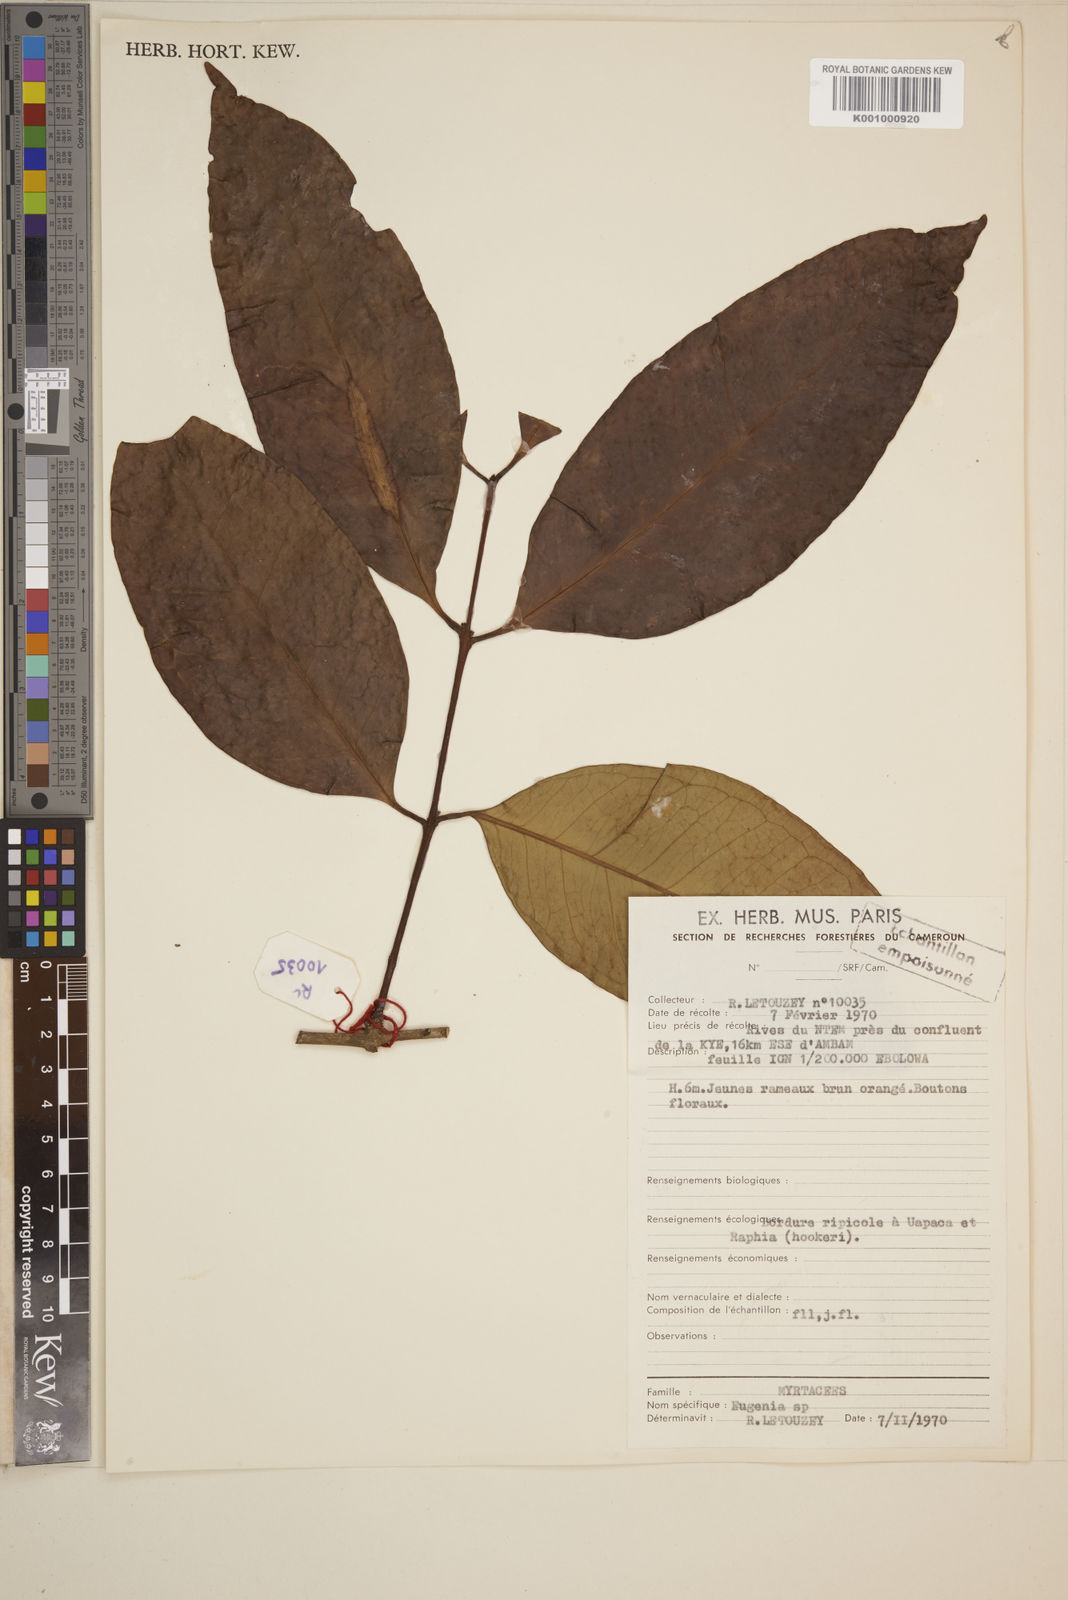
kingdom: Plantae
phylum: Tracheophyta
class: Magnoliopsida
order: Myrtales
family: Myrtaceae
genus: Eugenia
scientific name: Eugenia
